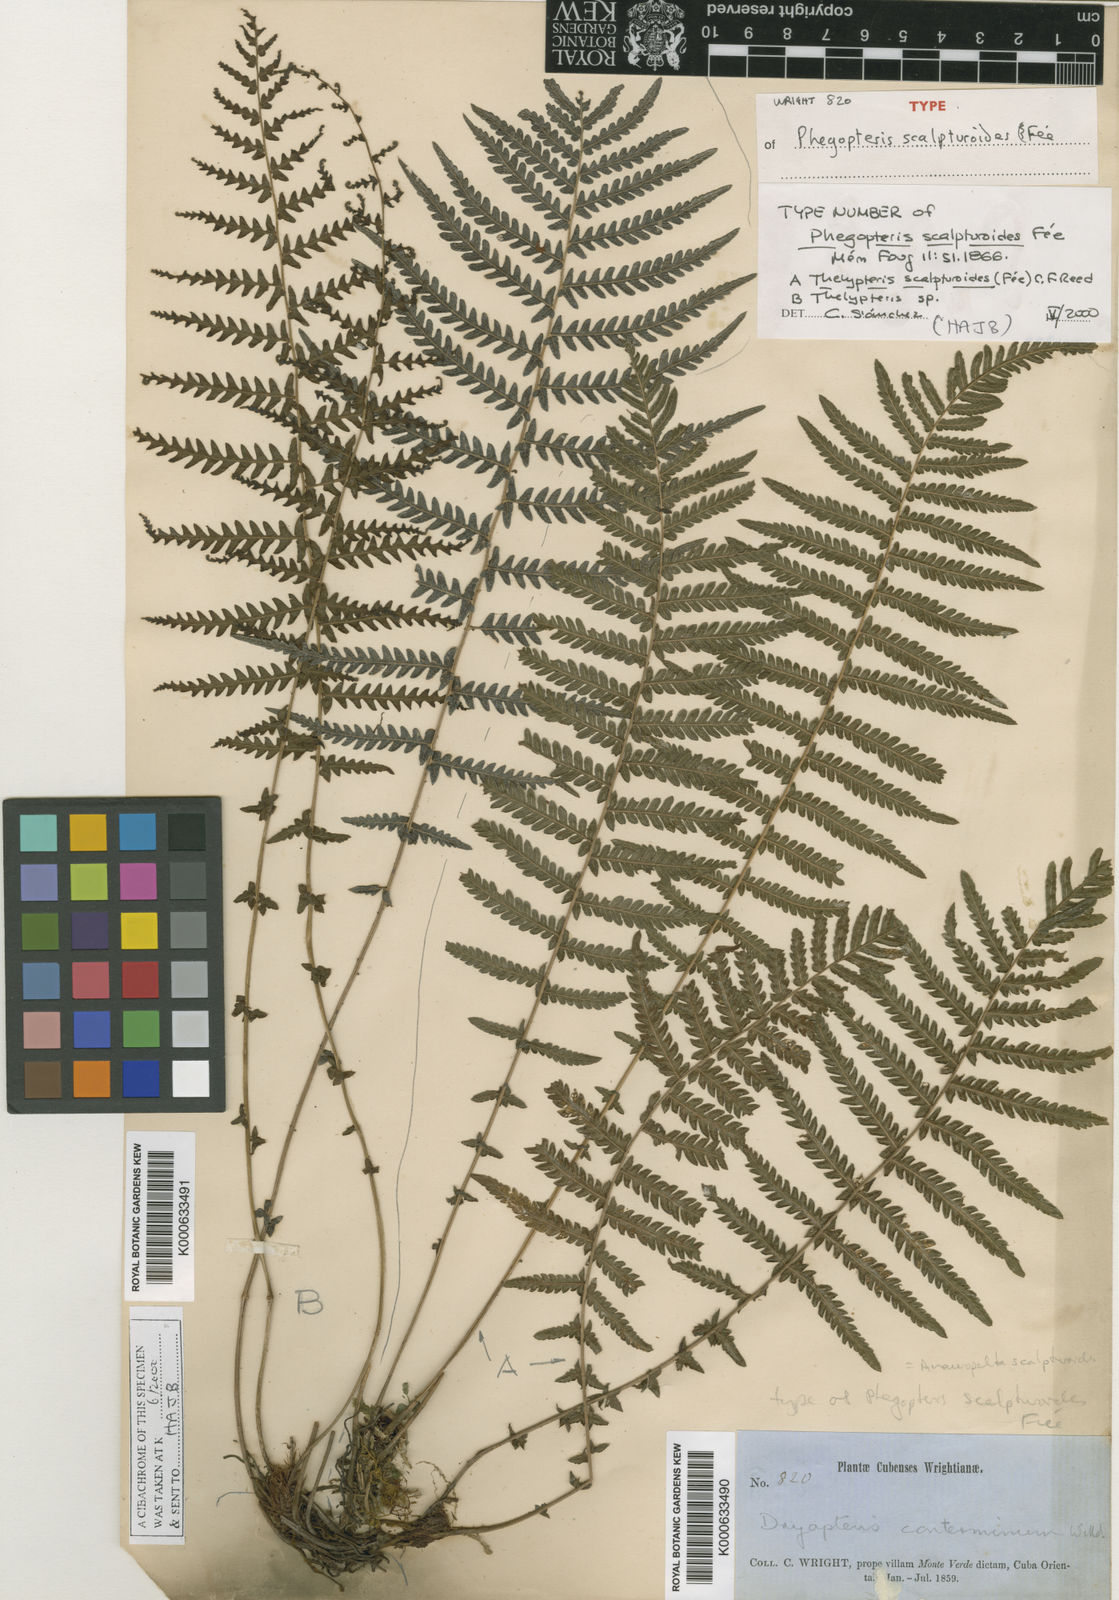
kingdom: Plantae
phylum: Tracheophyta
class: Polypodiopsida
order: Polypodiales
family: Thelypteridaceae
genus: Amauropelta
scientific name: Amauropelta
